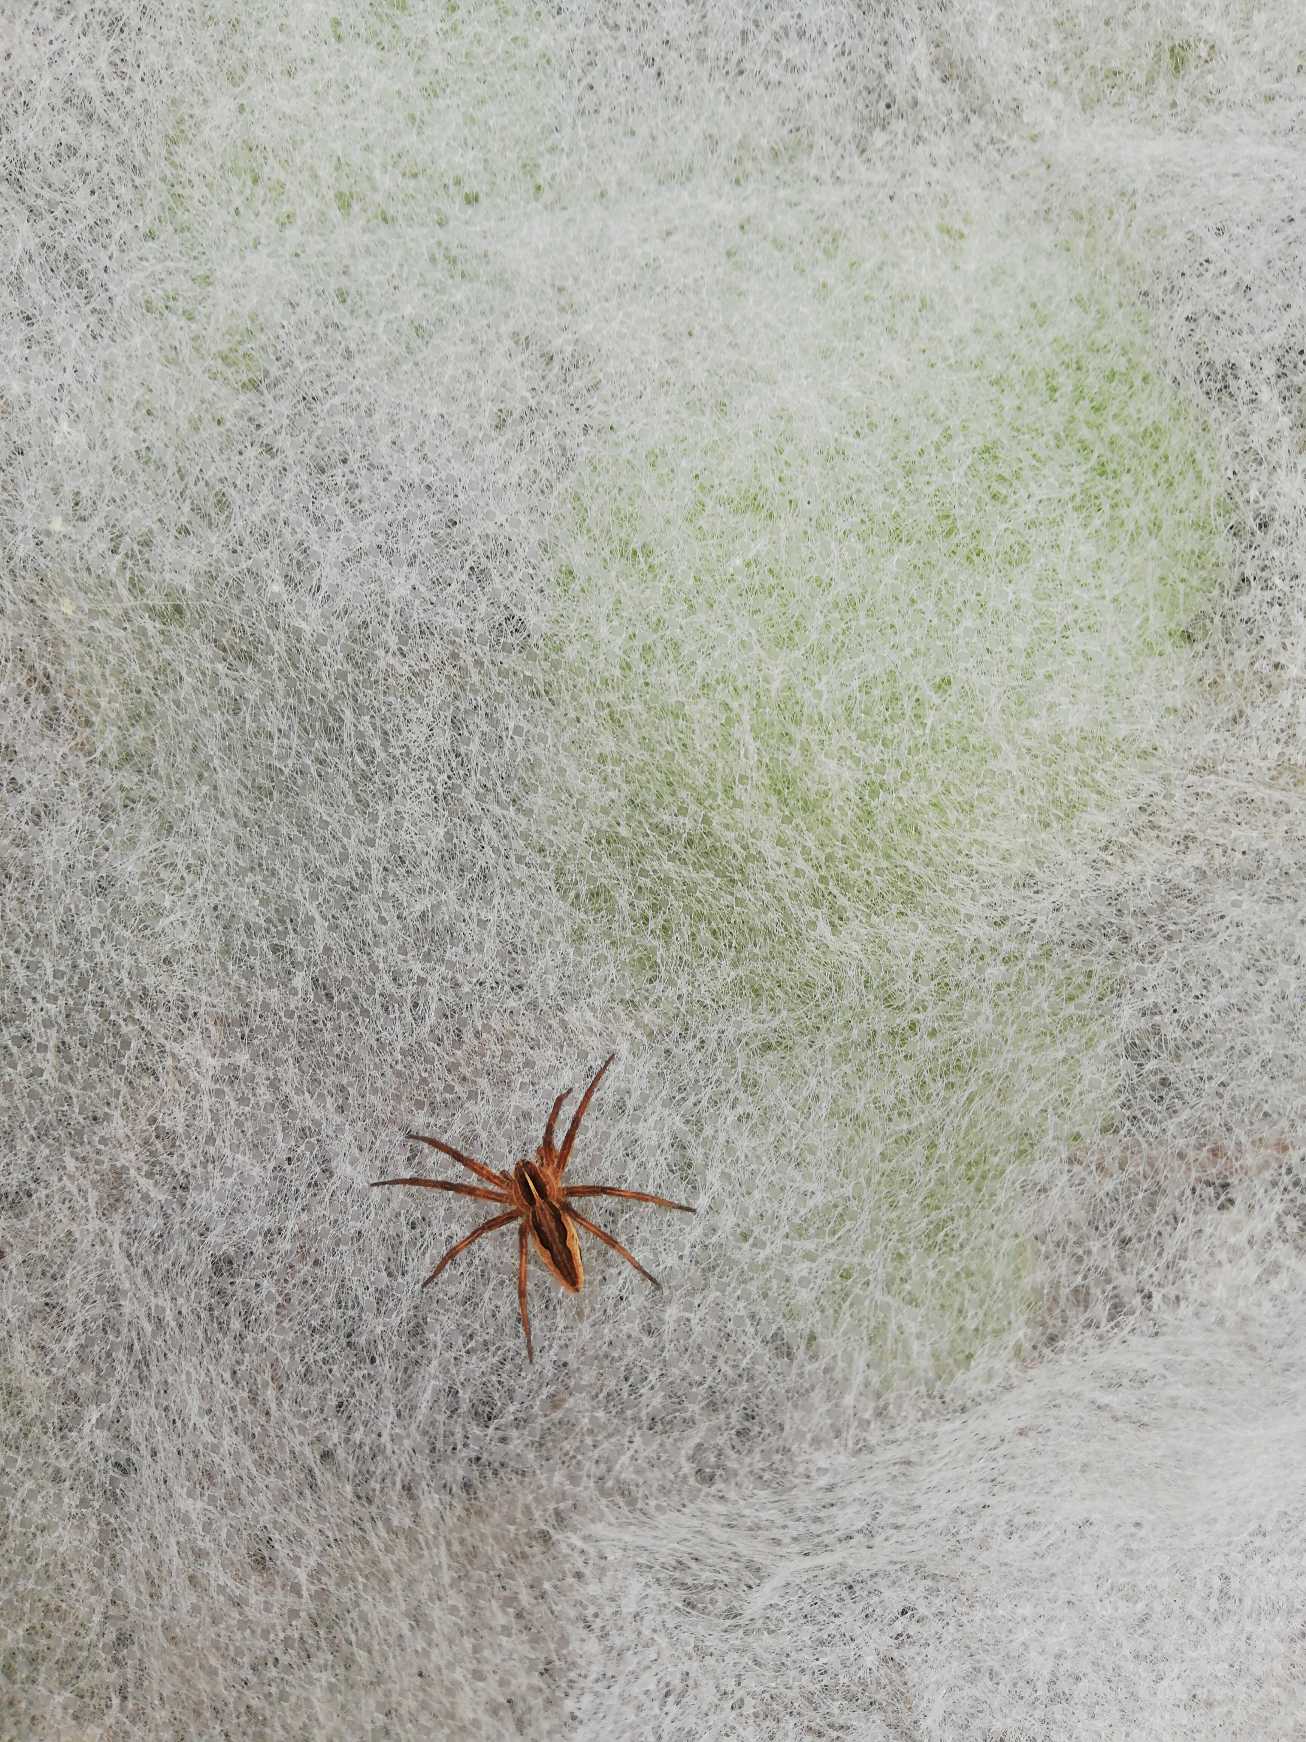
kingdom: Animalia
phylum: Arthropoda
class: Arachnida
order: Araneae
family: Pisauridae
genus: Pisaura
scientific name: Pisaura mirabilis
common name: Almindelig rovedderkop
